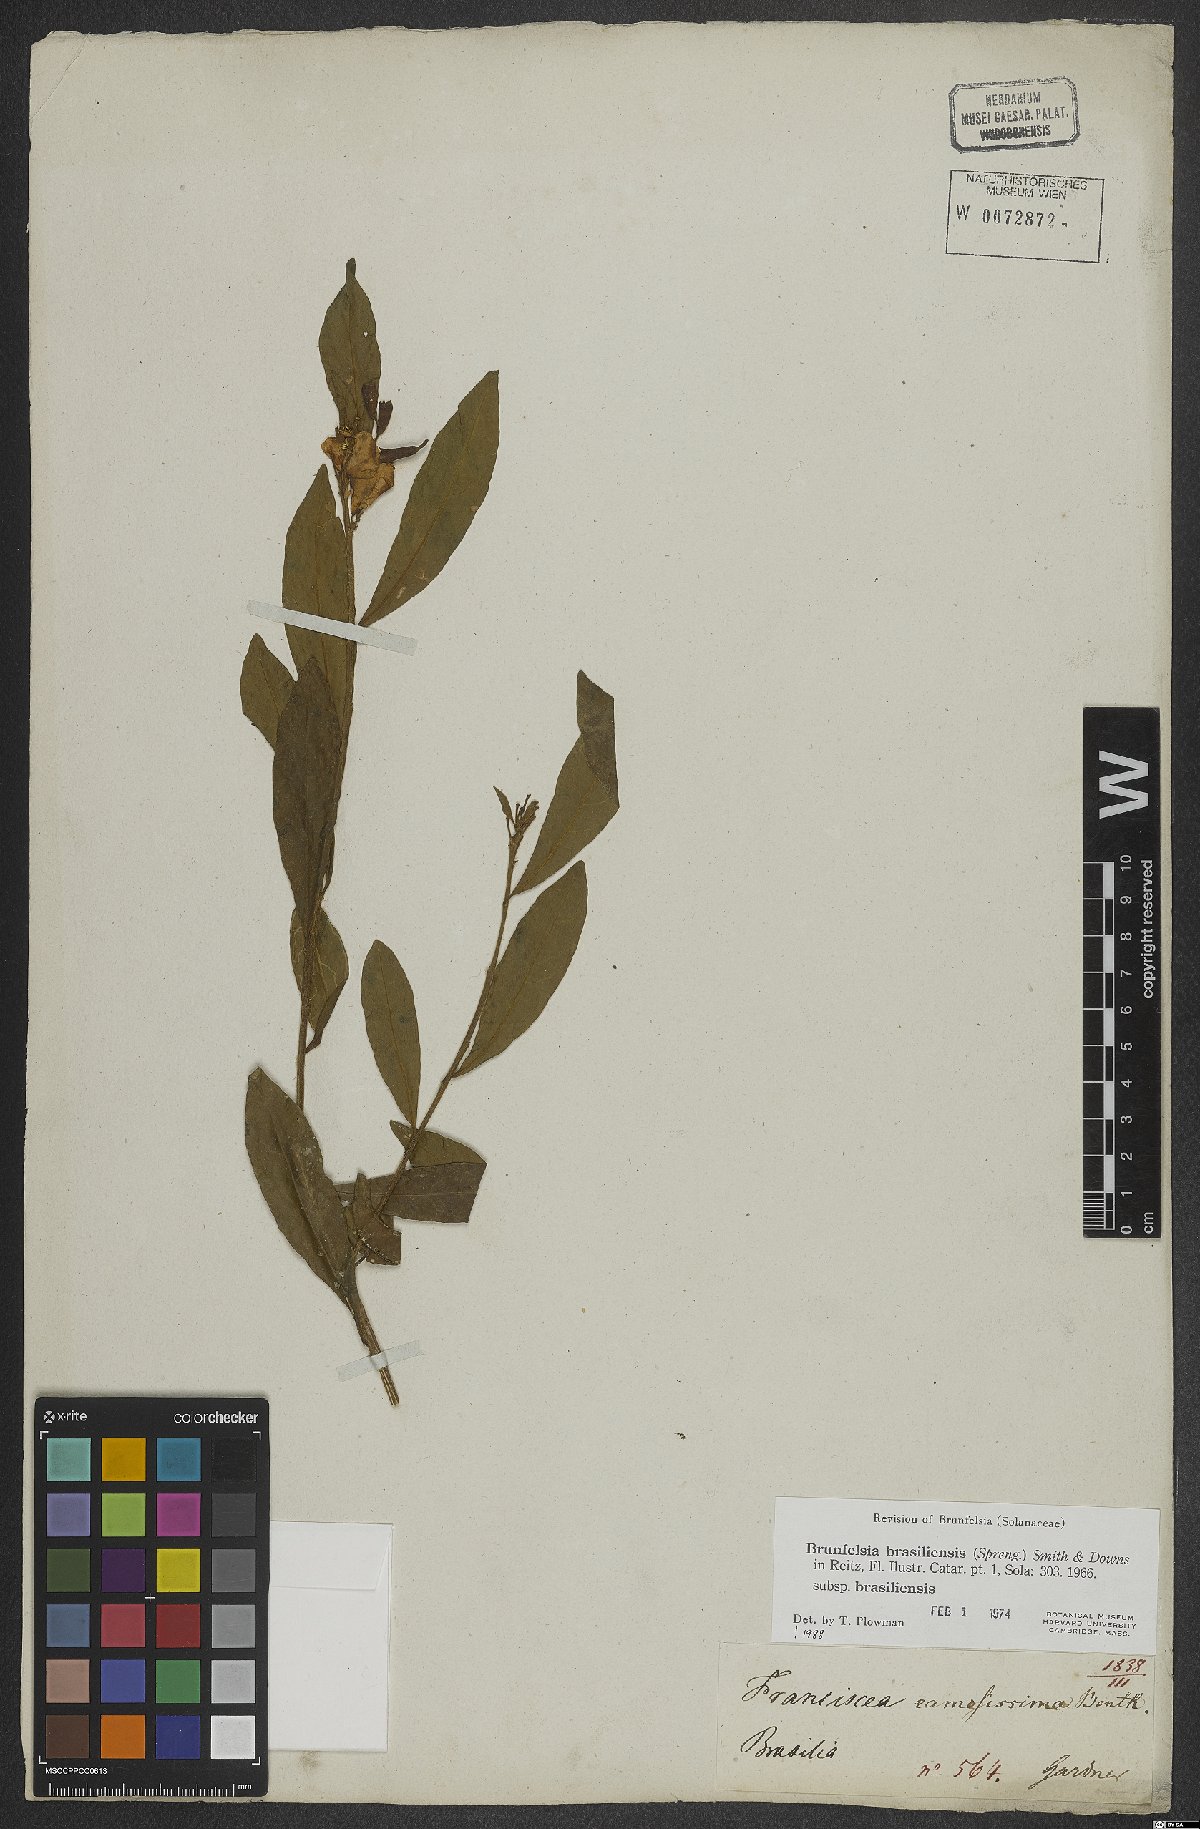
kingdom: Plantae
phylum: Tracheophyta
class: Magnoliopsida
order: Solanales
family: Solanaceae
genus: Brunfelsia
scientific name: Brunfelsia brasiliensis
